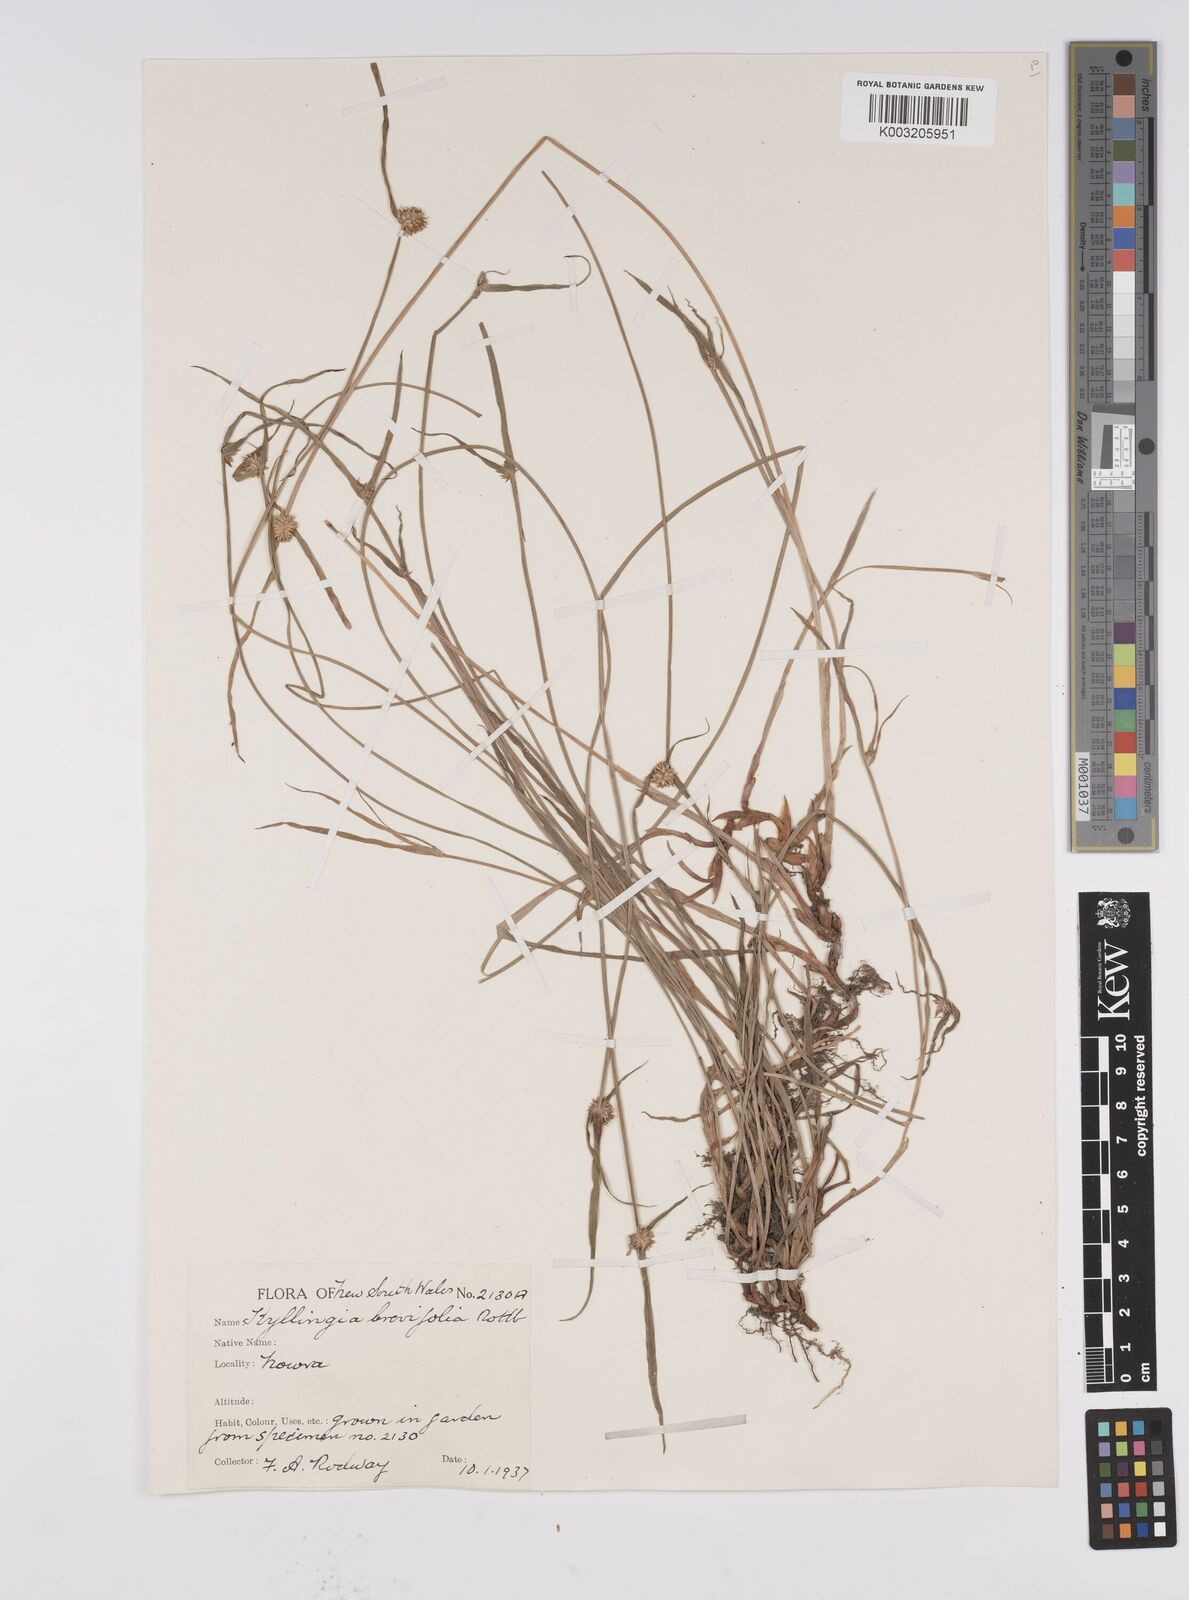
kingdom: Plantae
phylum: Tracheophyta
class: Liliopsida
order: Poales
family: Cyperaceae
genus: Cyperus
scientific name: Cyperus brevifolius
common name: Globe kyllinga
